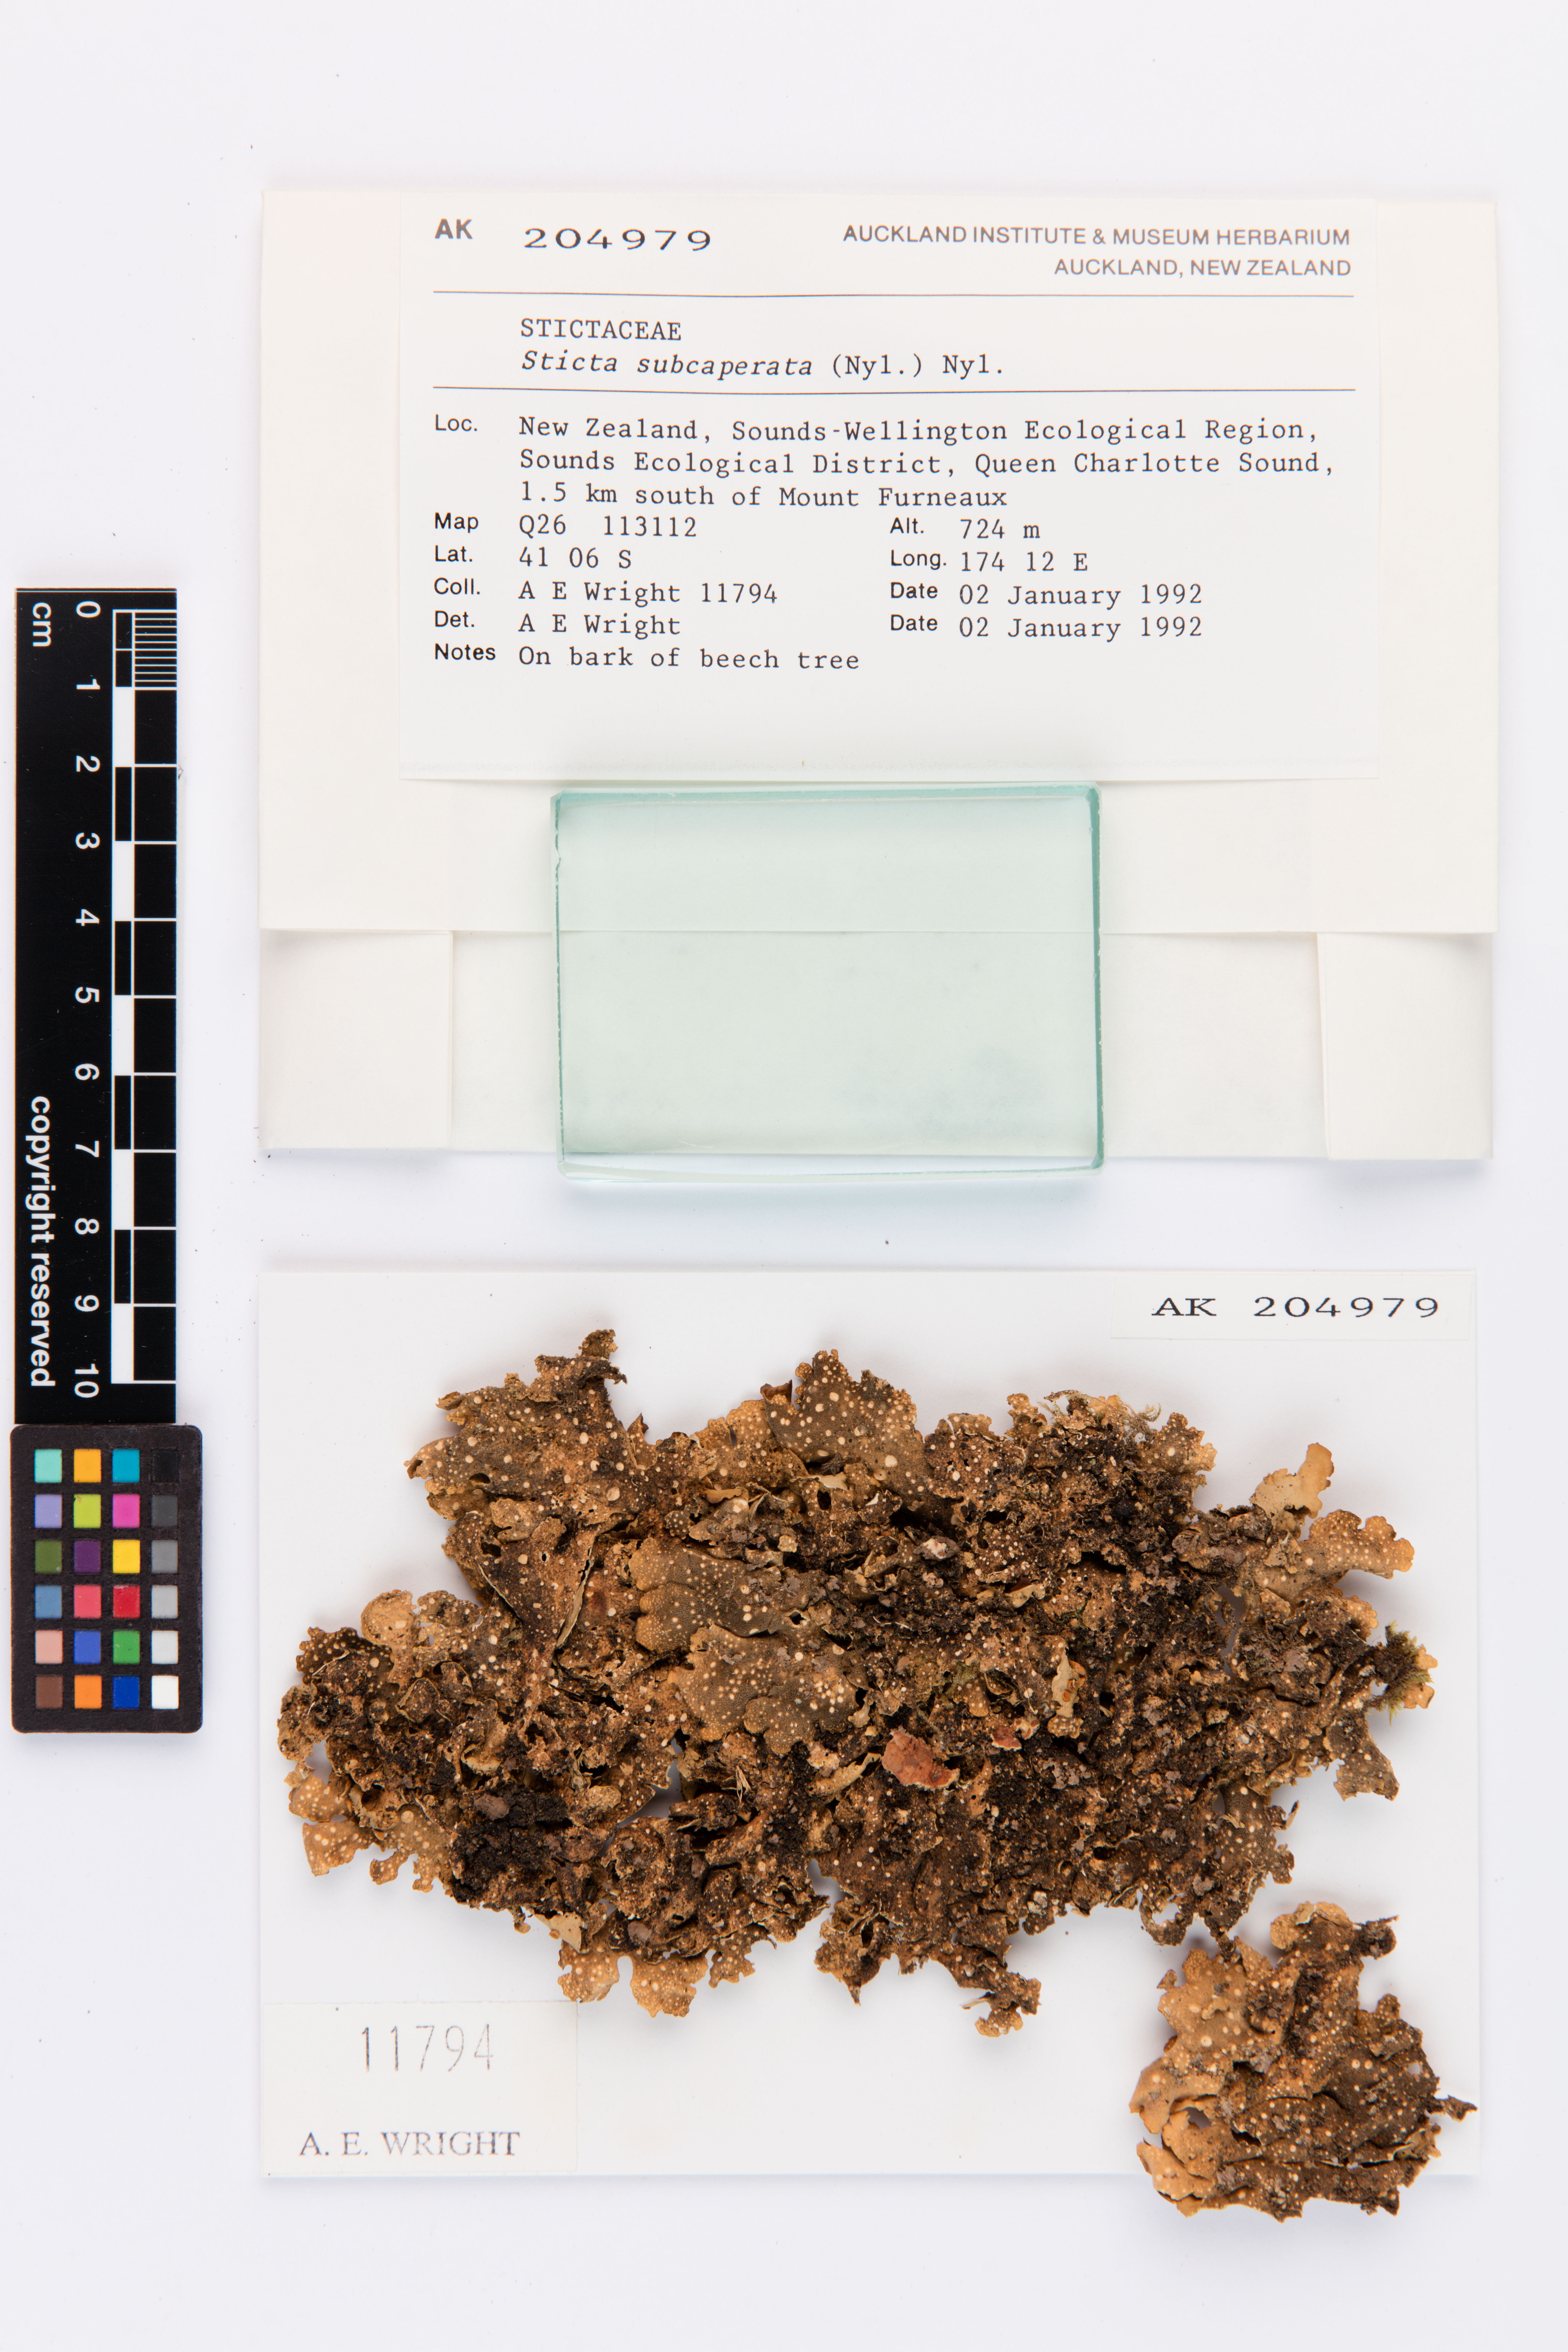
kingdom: Fungi
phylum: Ascomycota
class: Lecanoromycetes
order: Peltigerales
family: Lobariaceae
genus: Sticta
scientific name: Sticta subcaperata
